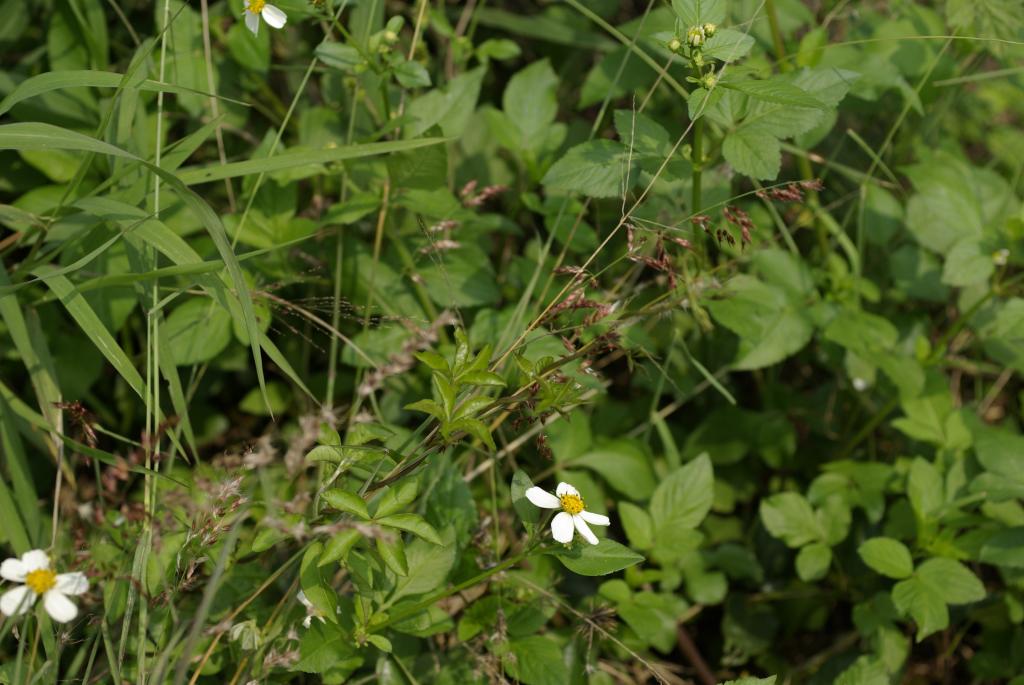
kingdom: Plantae
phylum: Tracheophyta
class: Liliopsida
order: Poales
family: Poaceae
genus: Melinis
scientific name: Melinis repens
